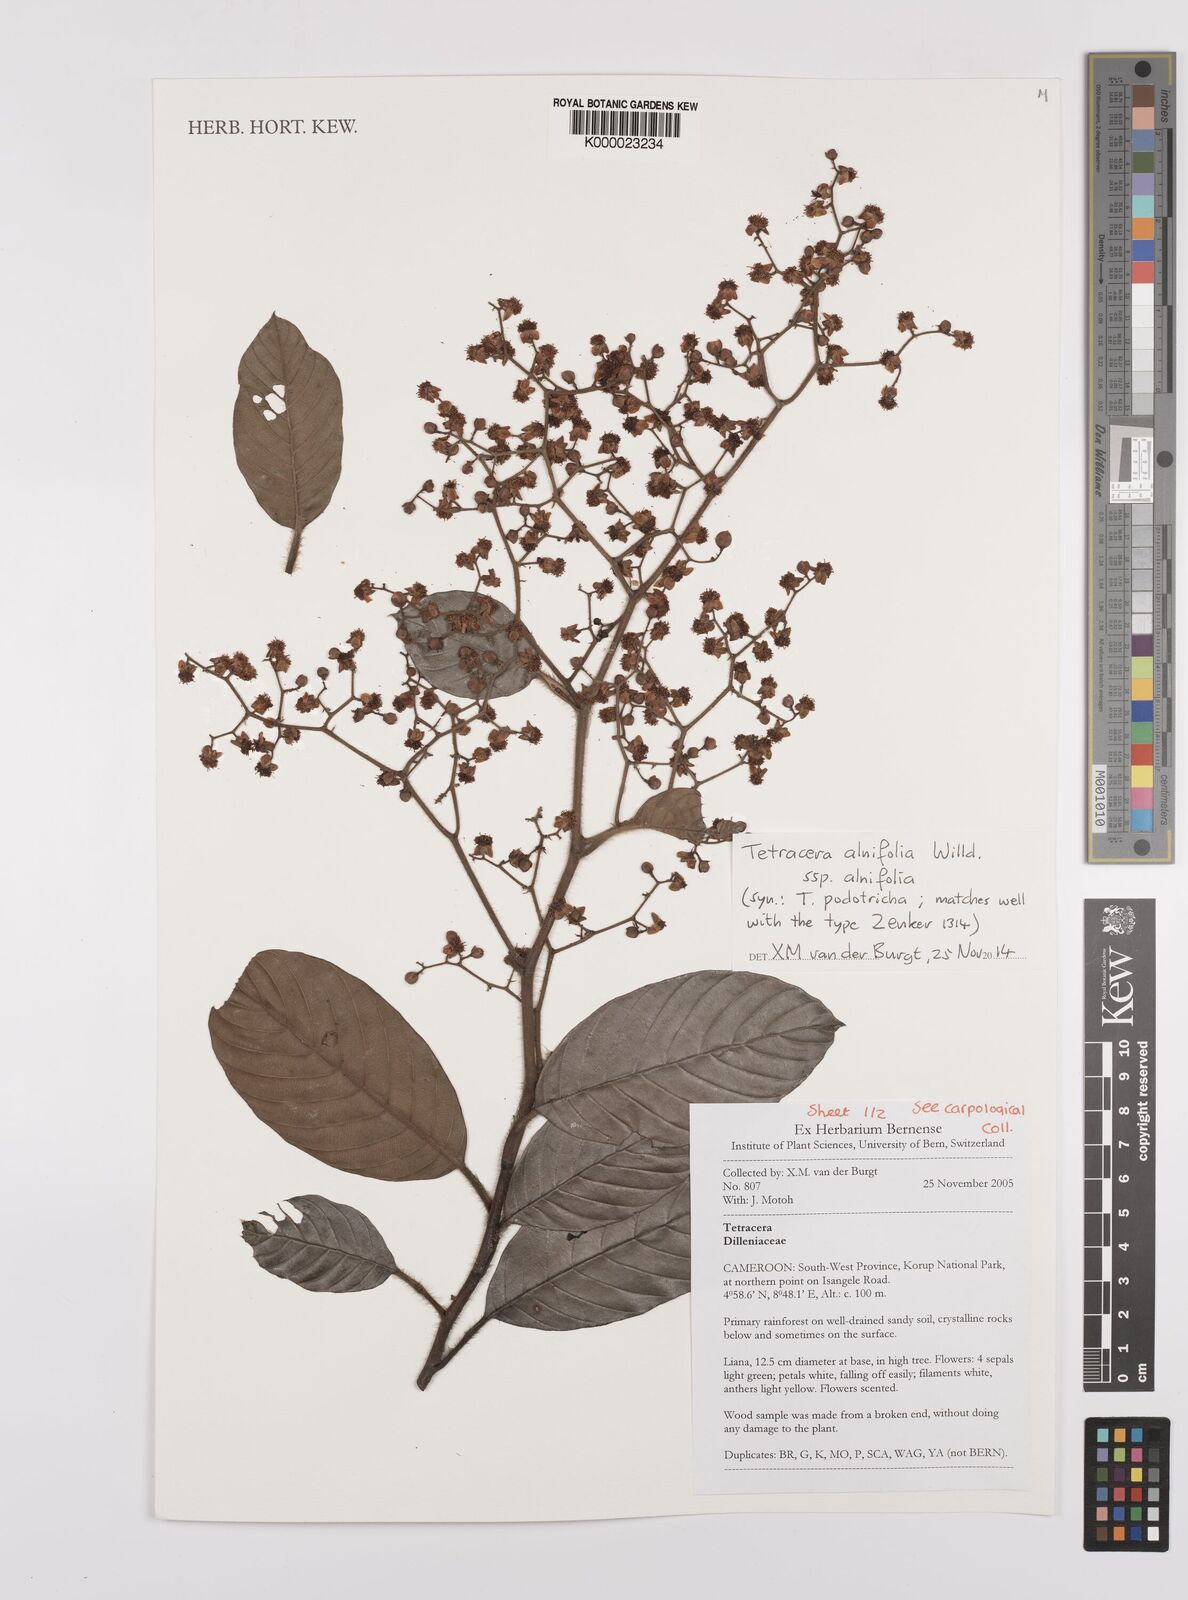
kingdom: Plantae
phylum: Tracheophyta
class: Magnoliopsida
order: Dilleniales
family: Dilleniaceae
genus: Tetracera
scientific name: Tetracera alnifolia
